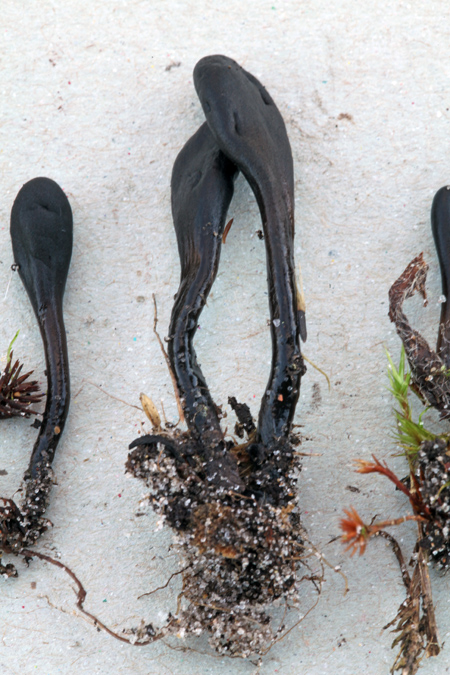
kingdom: Fungi
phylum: Ascomycota
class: Geoglossomycetes
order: Geoglossales
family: Geoglossaceae
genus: Glutinoglossum
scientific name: Glutinoglossum glutinosum
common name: slimet jordtunge
